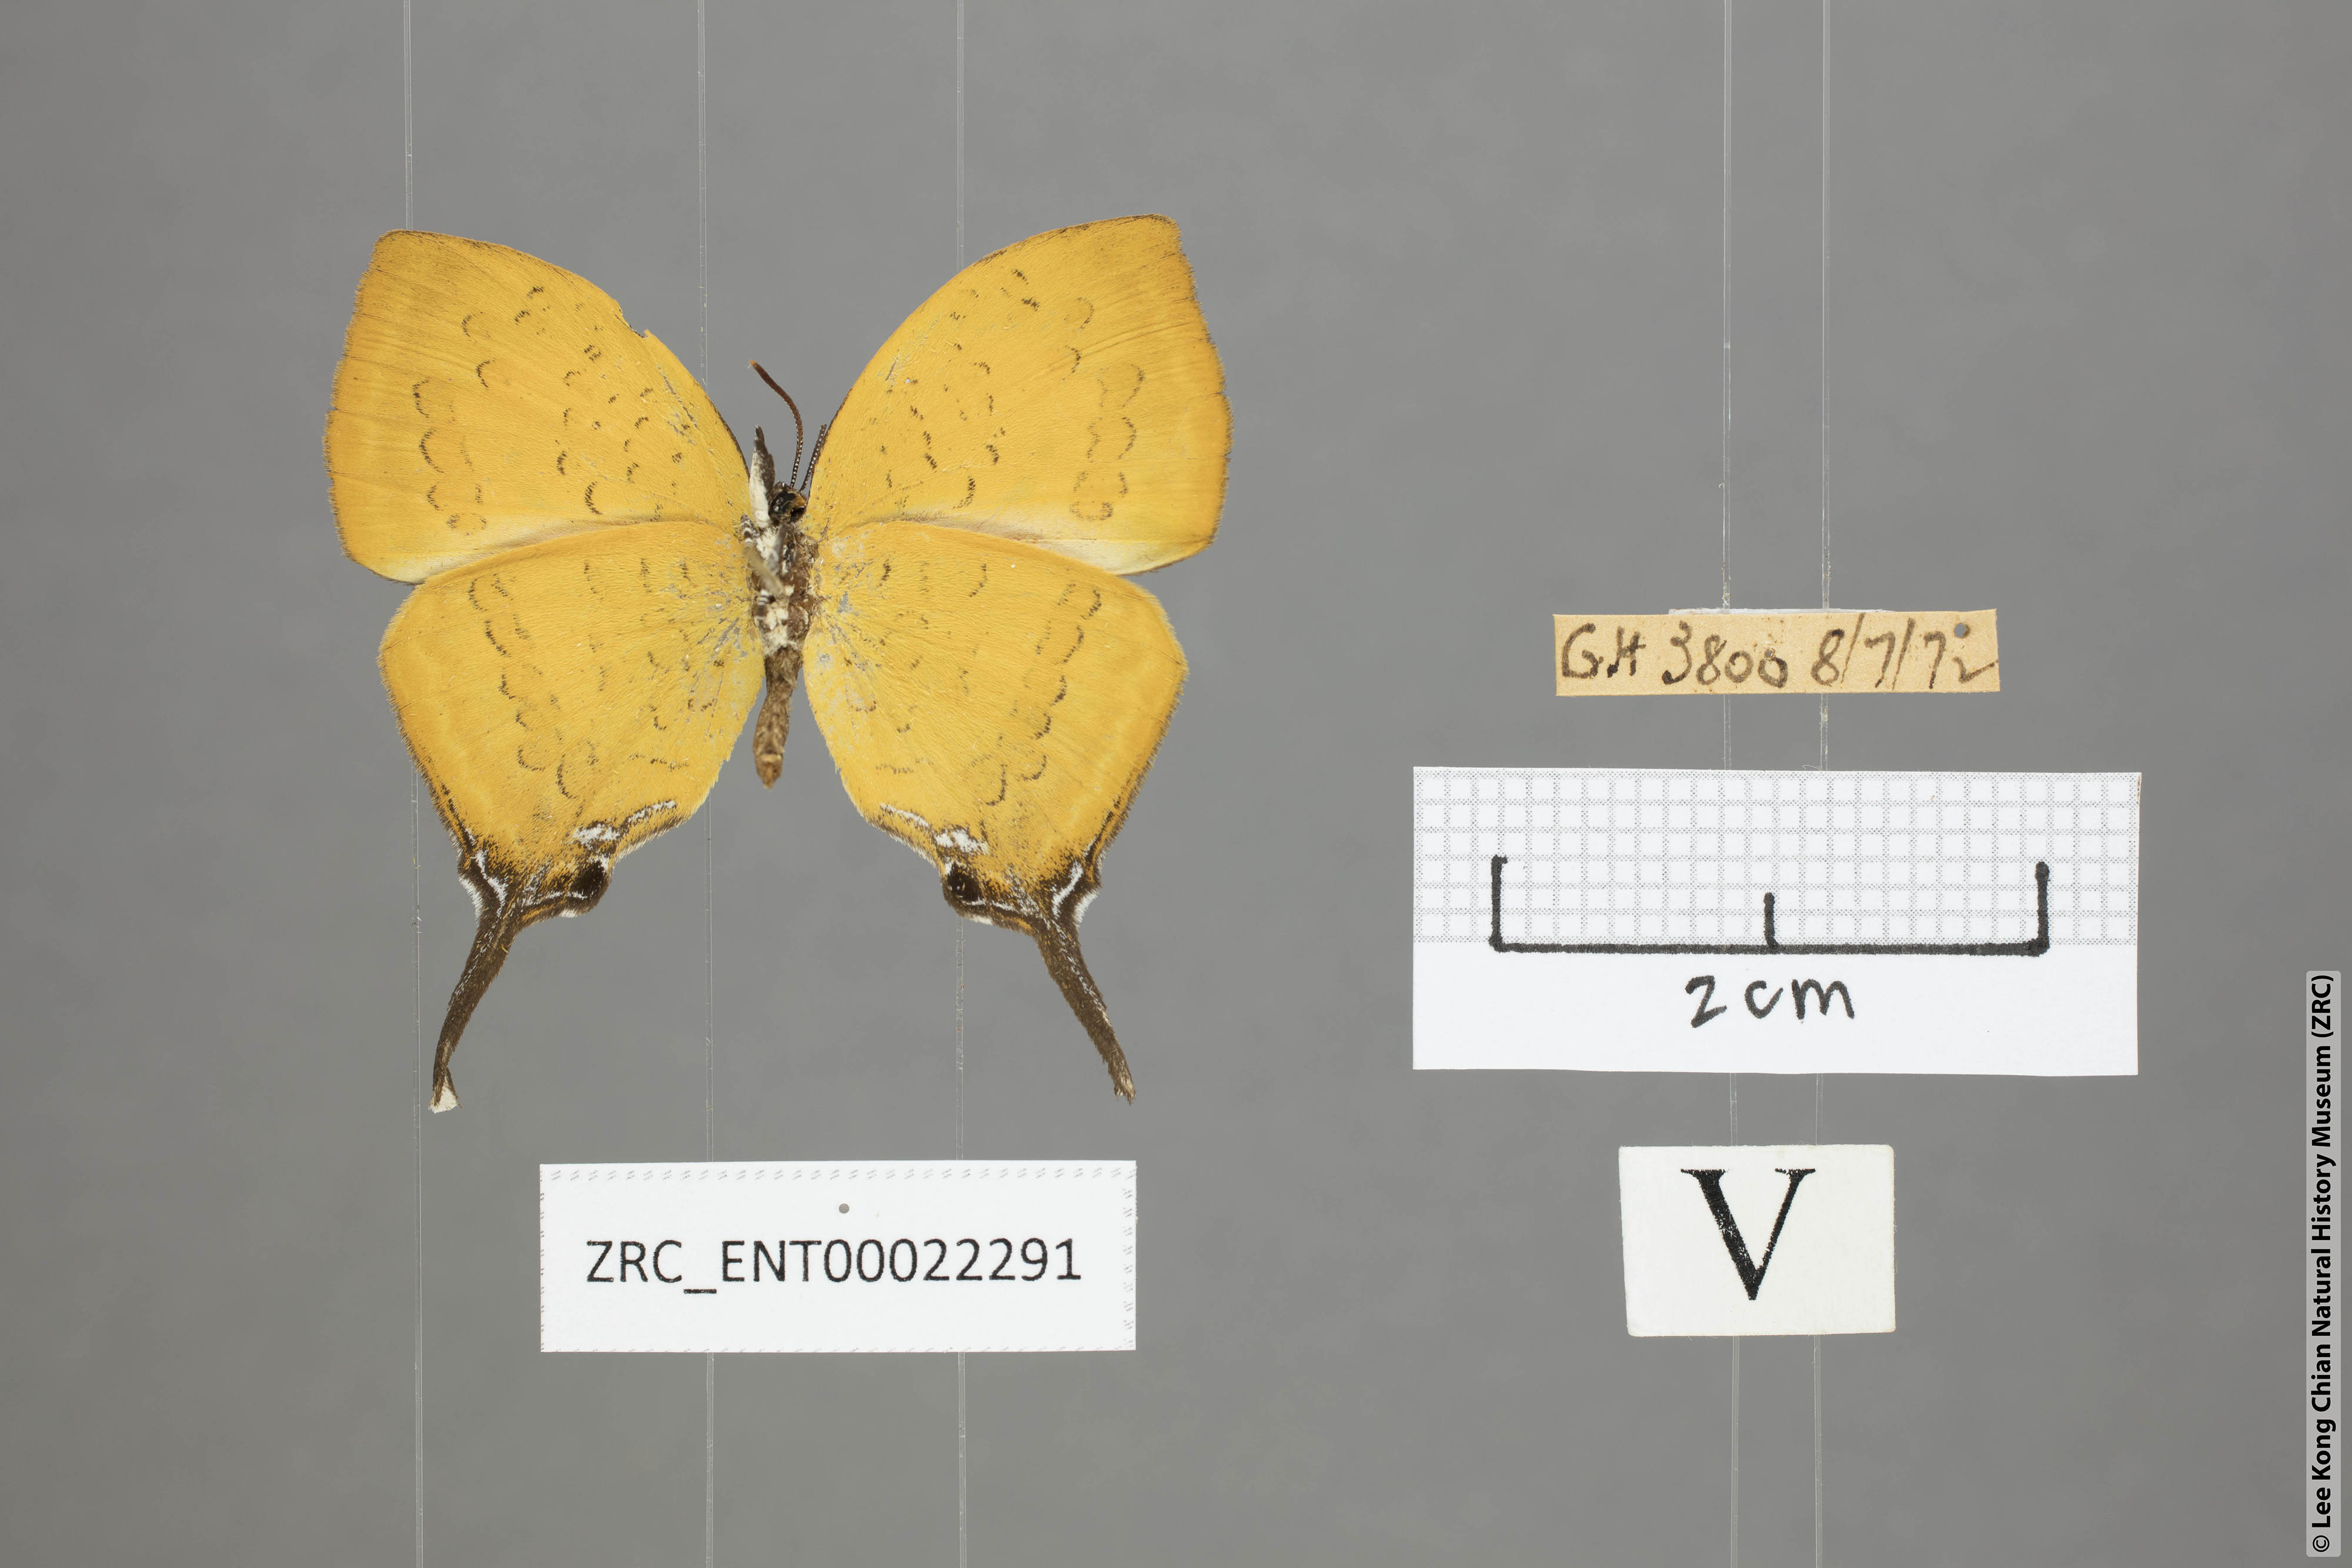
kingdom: Animalia
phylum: Arthropoda
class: Insecta
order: Lepidoptera
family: Lycaenidae
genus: Yasoda
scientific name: Yasoda pita
